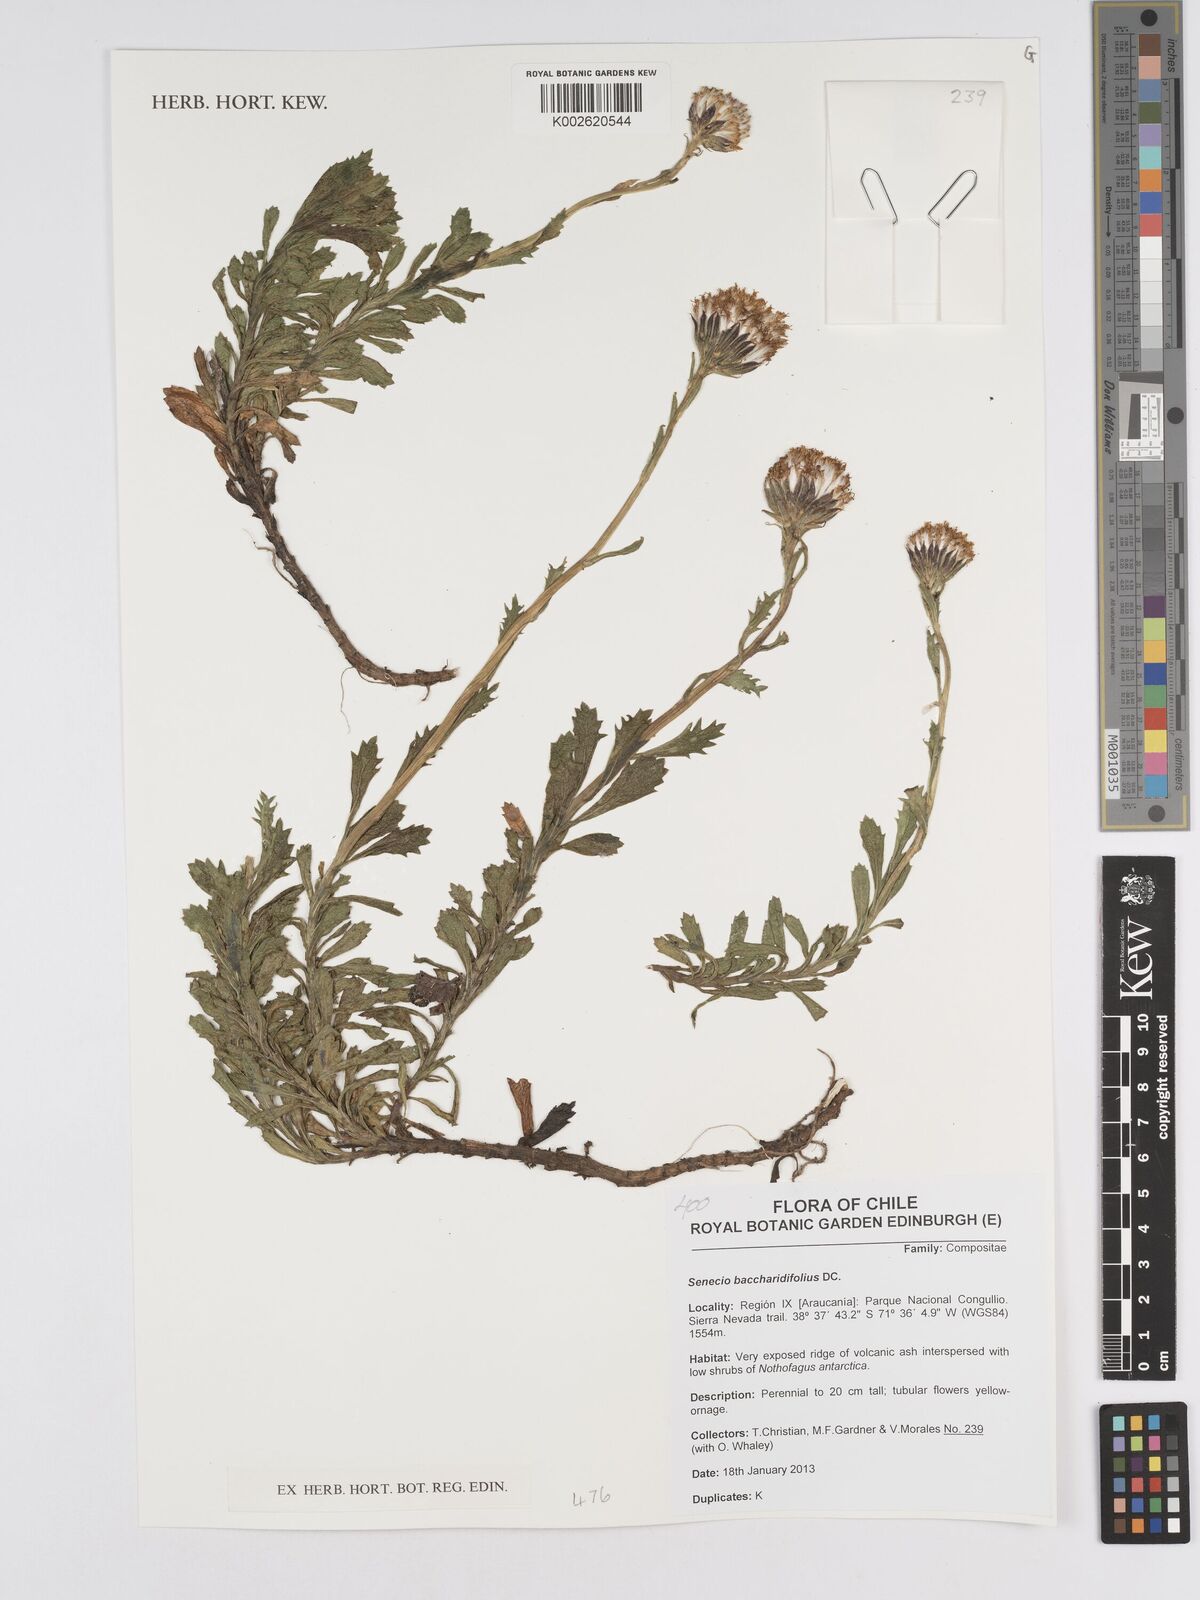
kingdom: Plantae
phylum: Tracheophyta
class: Magnoliopsida
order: Asterales
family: Asteraceae
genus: Senecio
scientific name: Senecio baccharidifolius
